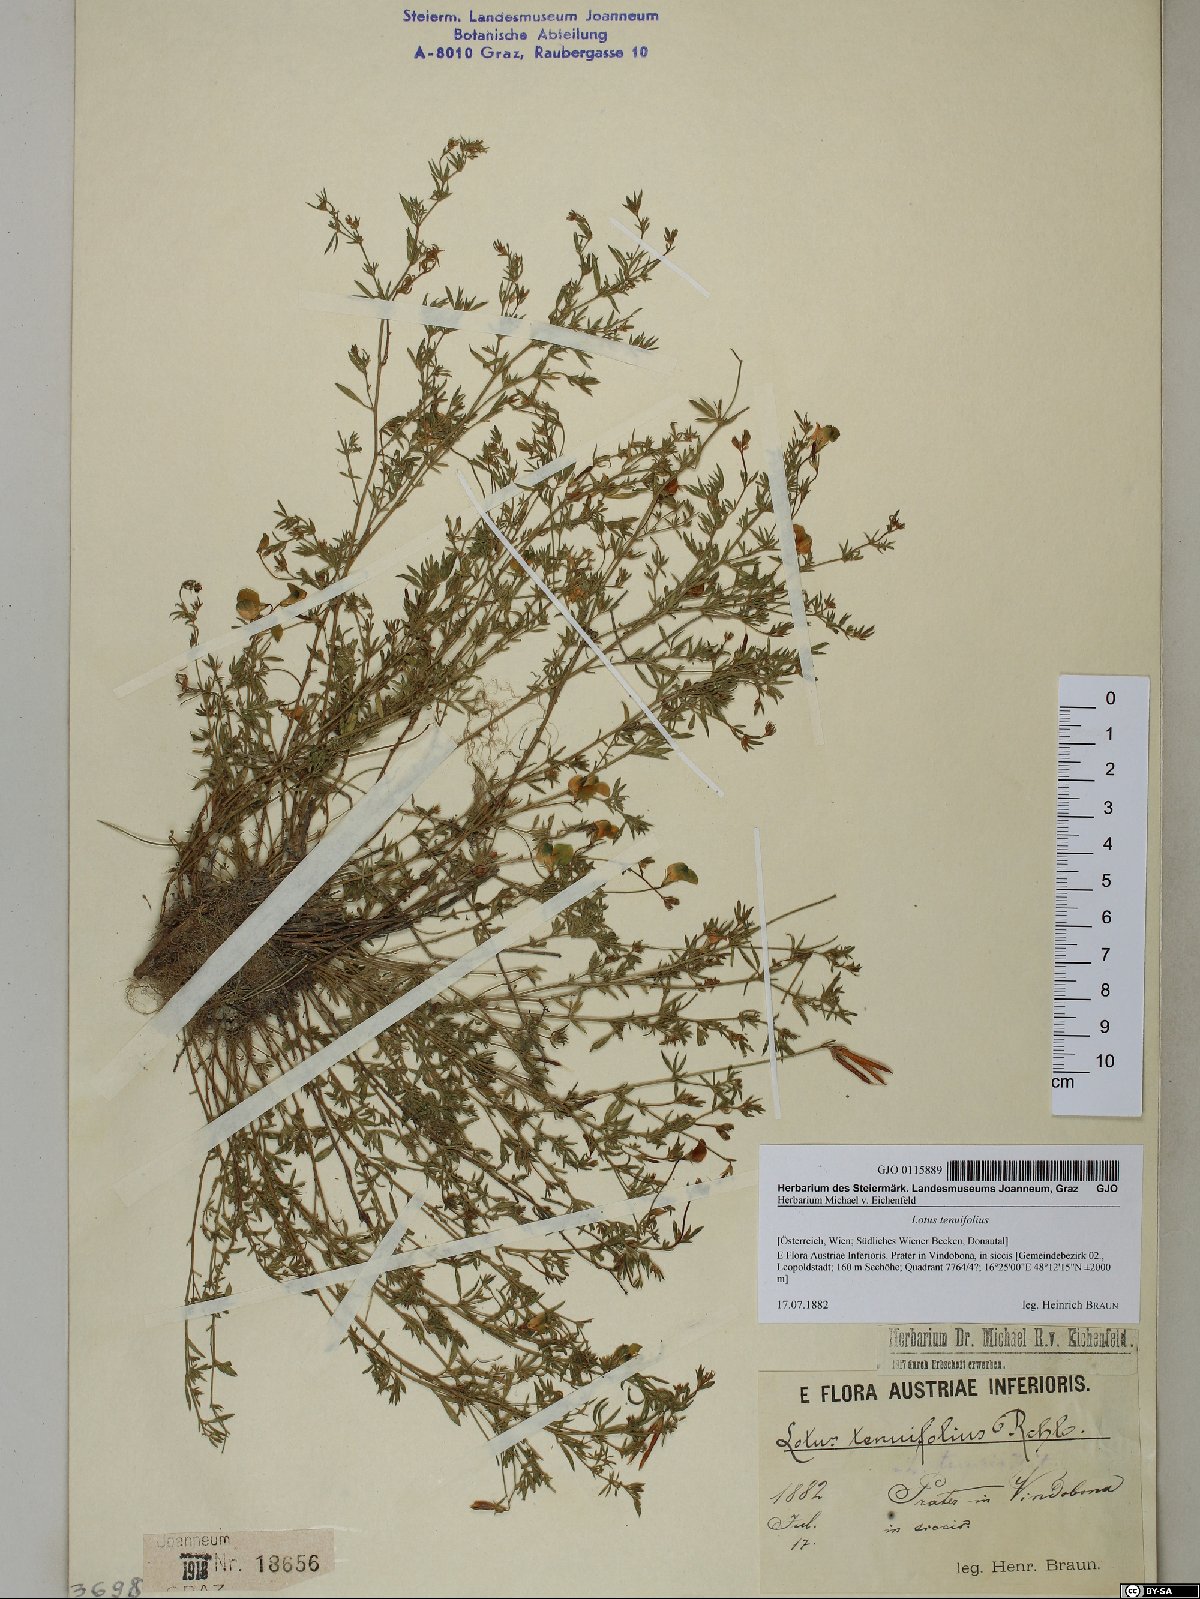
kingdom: Plantae
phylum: Tracheophyta
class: Magnoliopsida
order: Fabales
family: Fabaceae
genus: Lotus
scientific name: Lotus tenuis
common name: Narrow-leaved bird's-foot-trefoil
